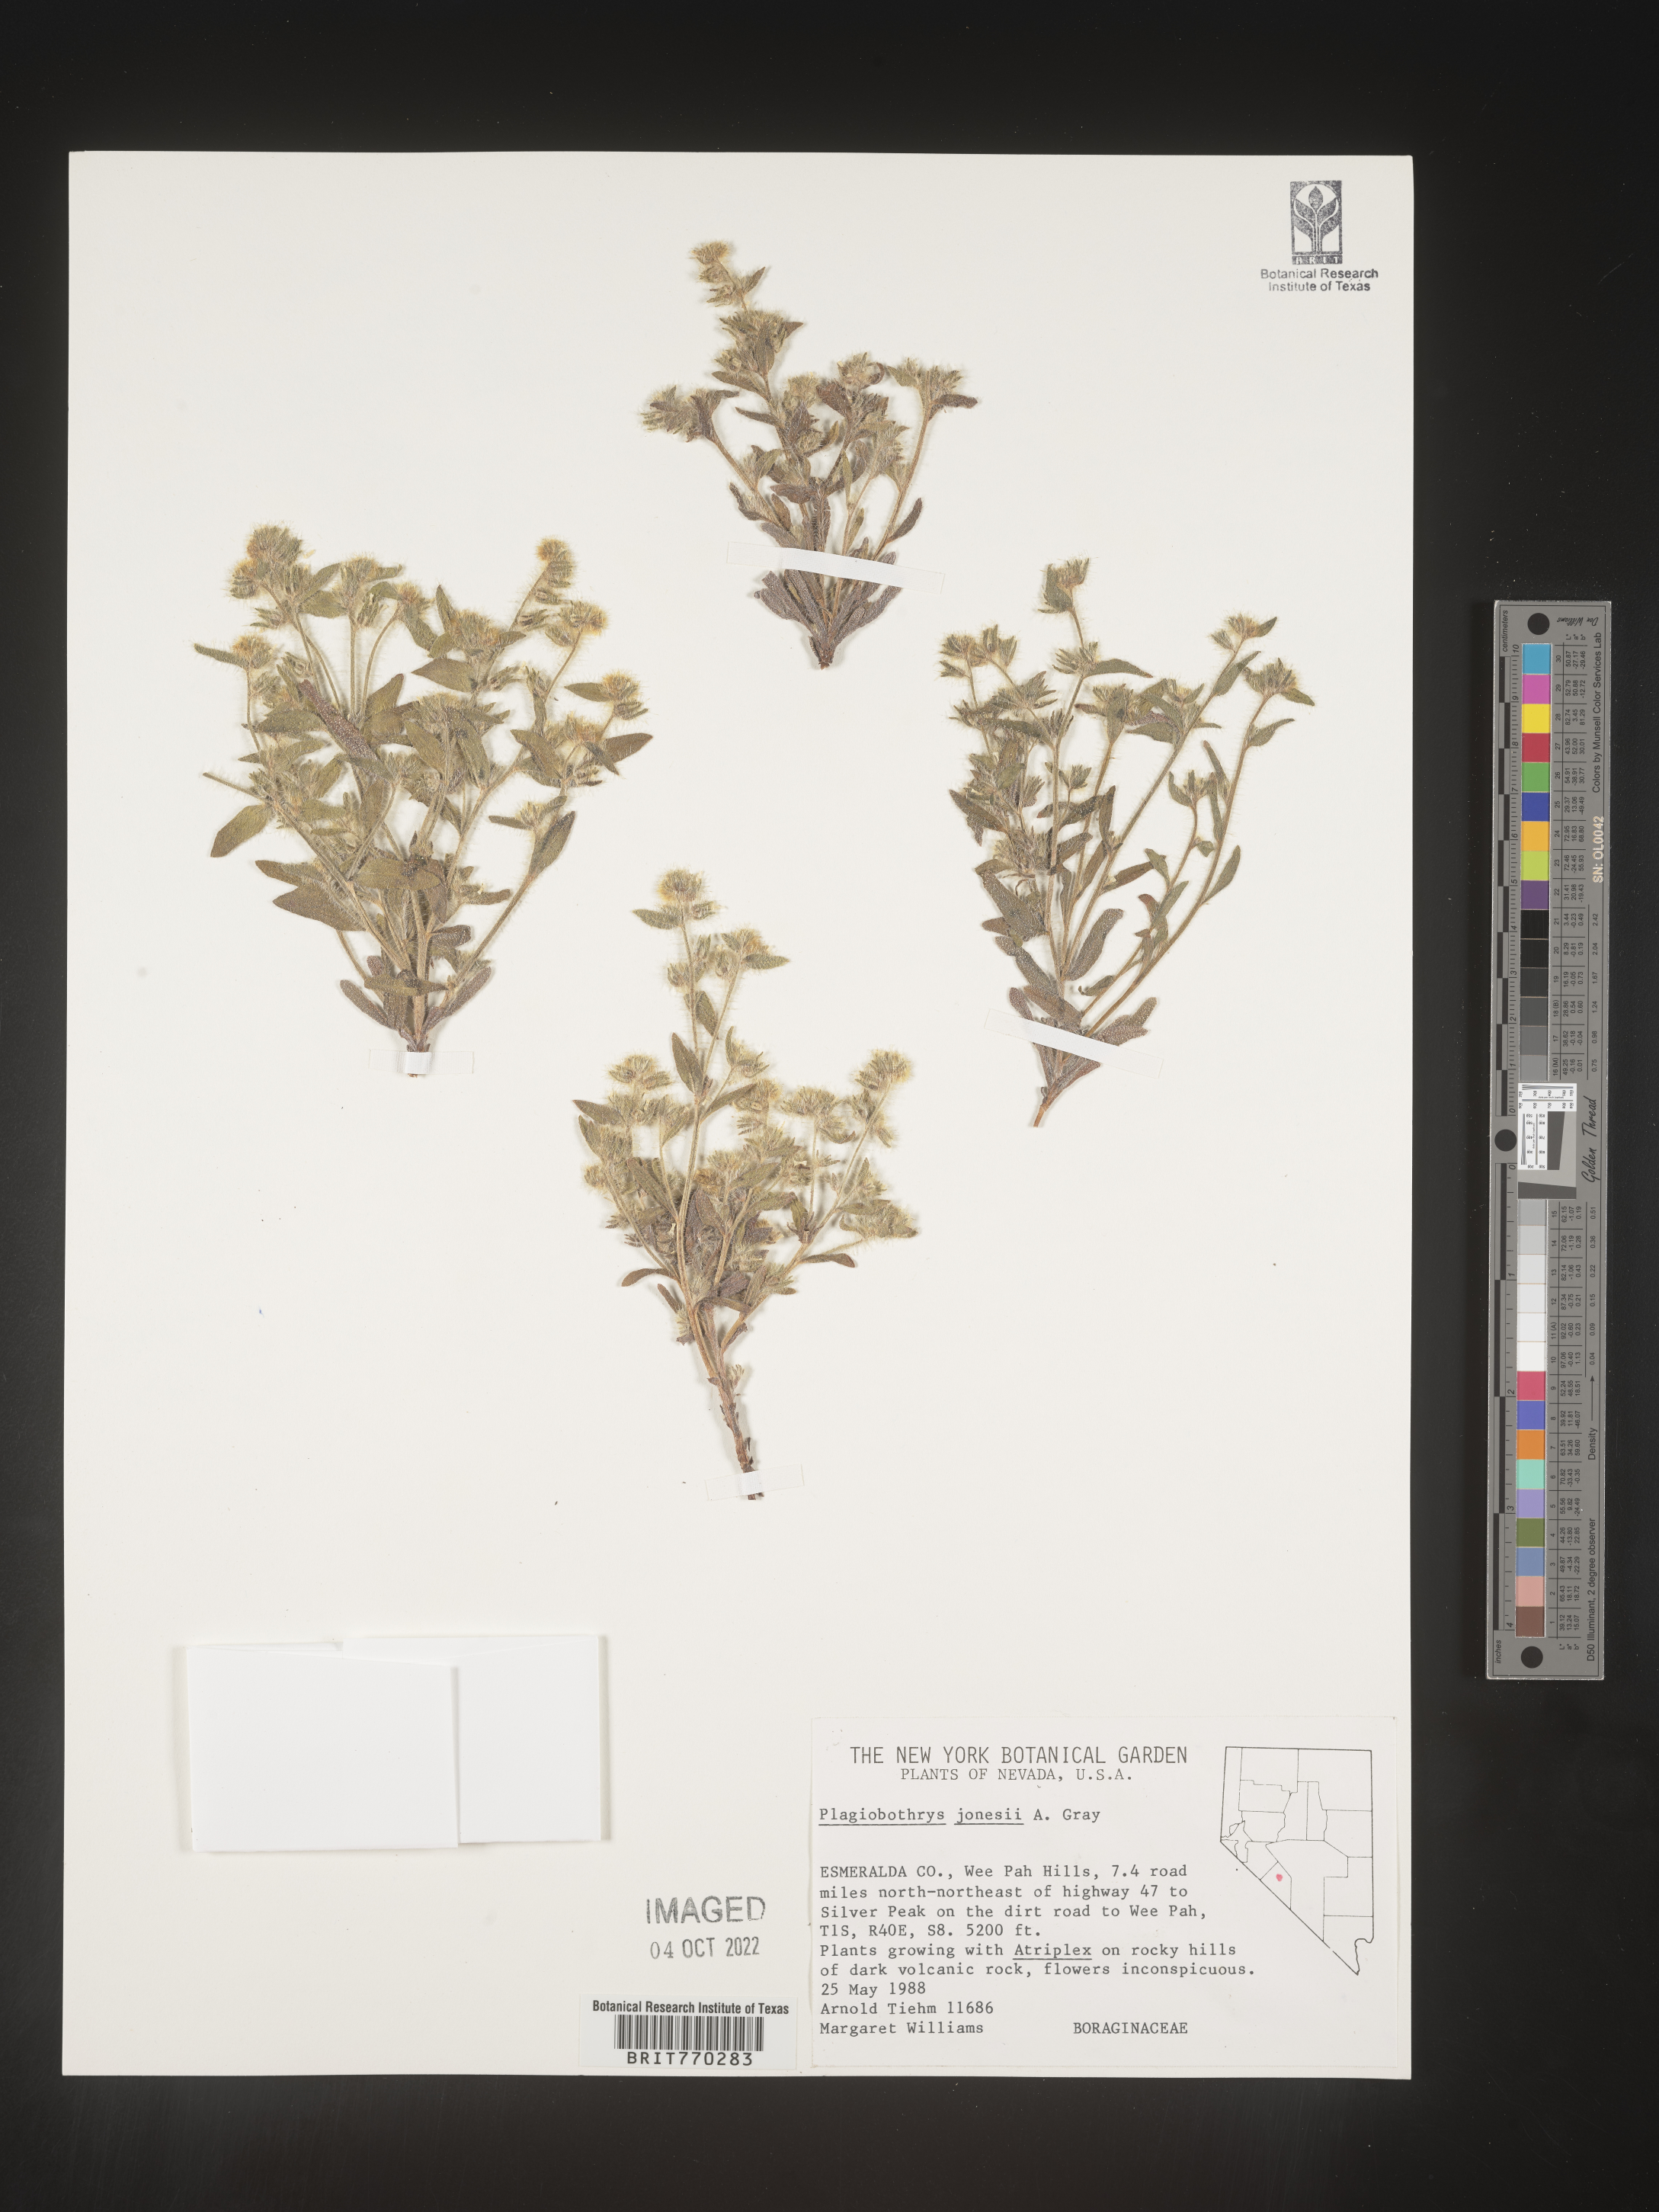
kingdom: Plantae
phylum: Tracheophyta
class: Magnoliopsida
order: Boraginales
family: Boraginaceae
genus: Plagiobothrys
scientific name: Plagiobothrys
